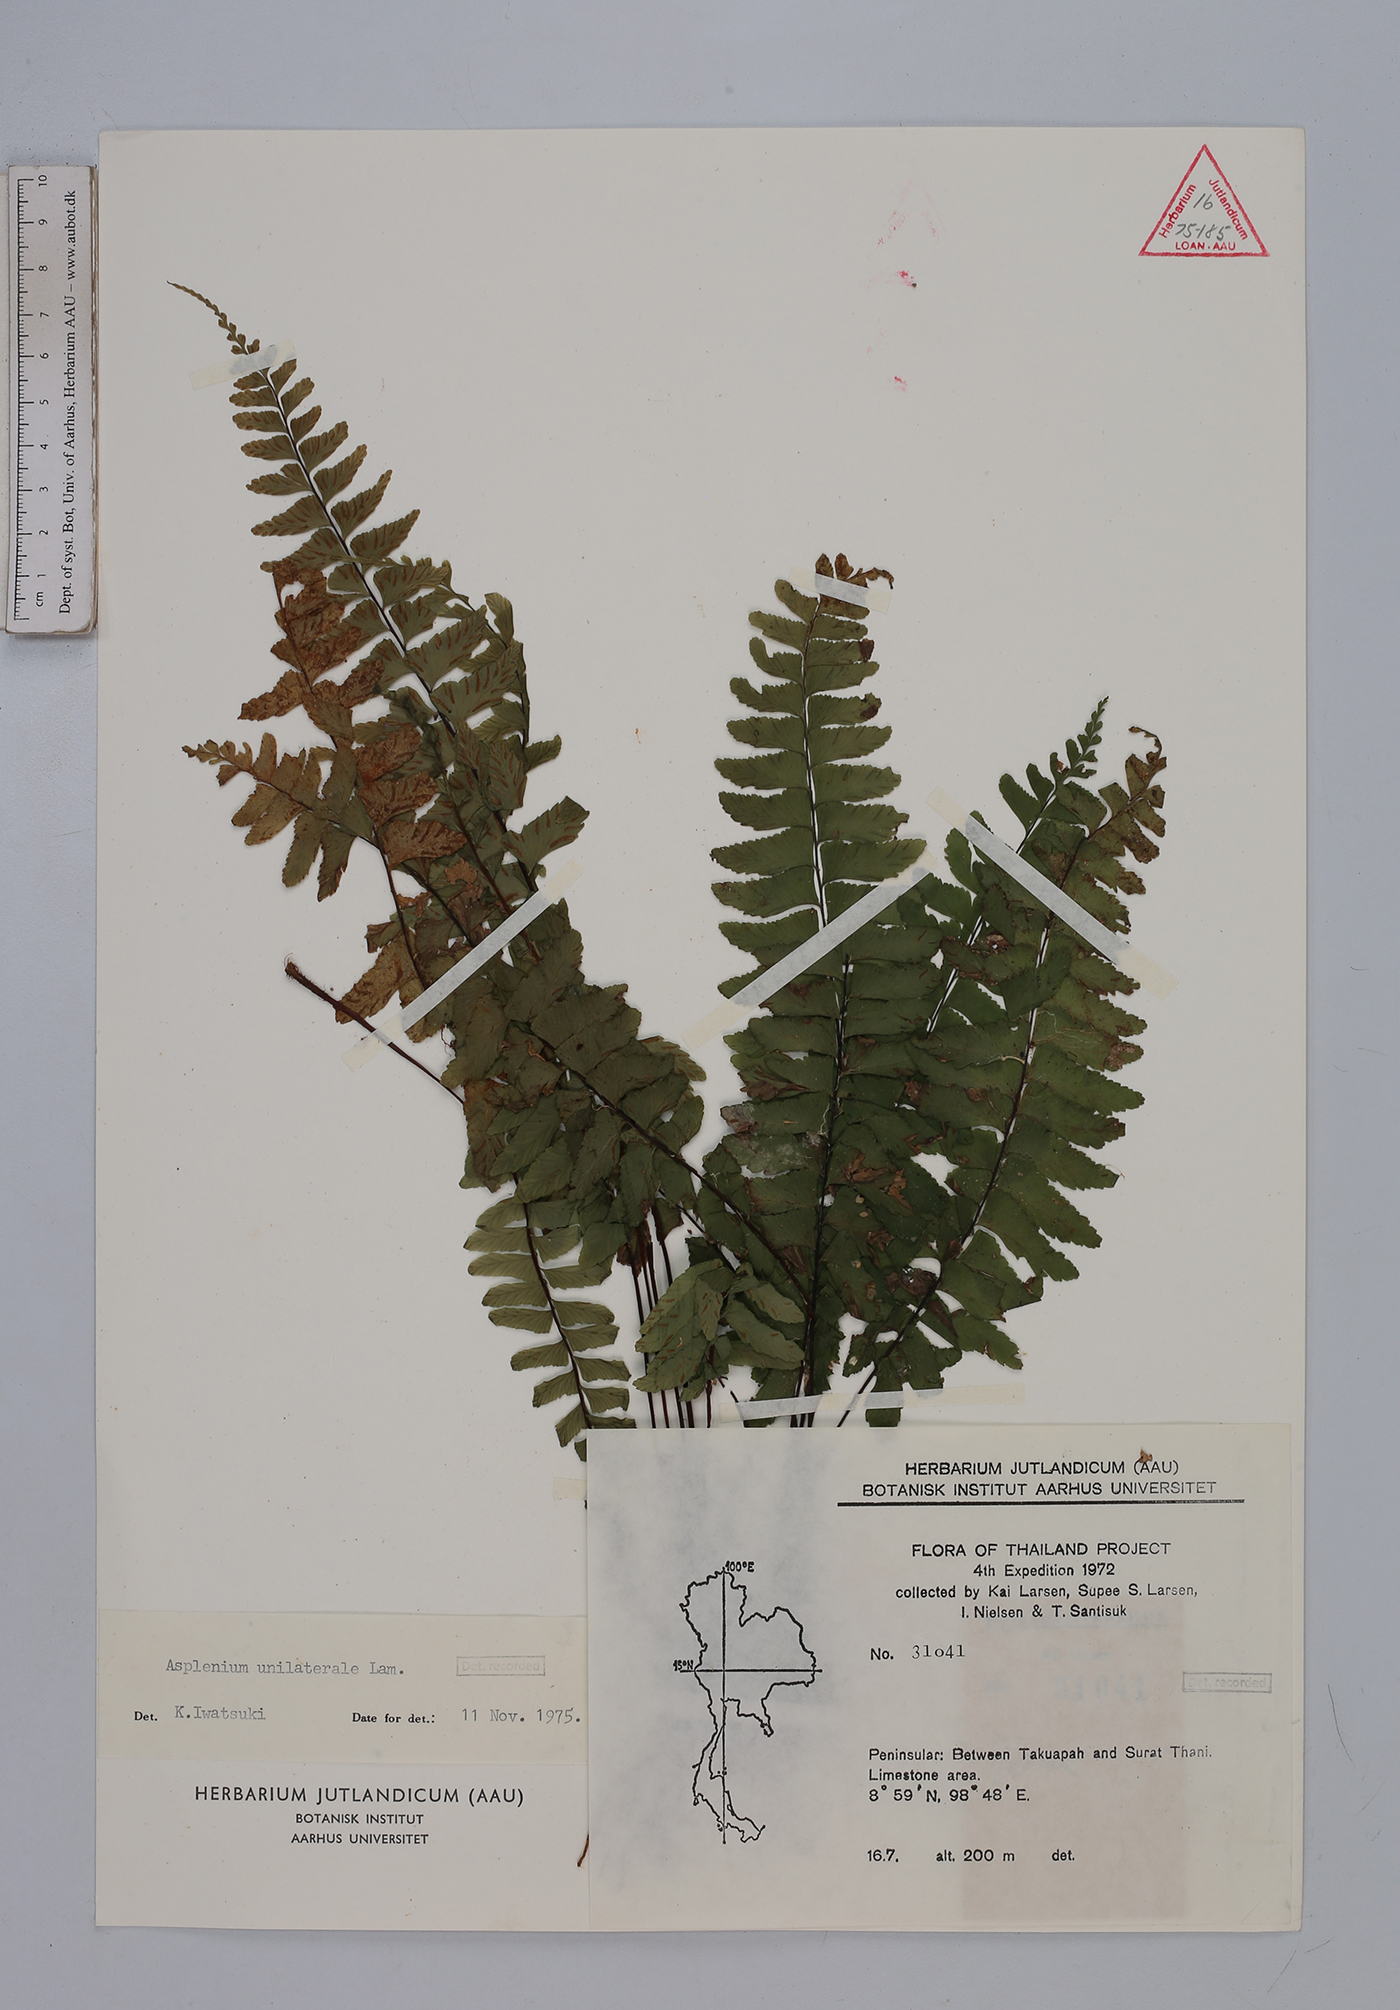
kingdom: Plantae
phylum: Tracheophyta
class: Polypodiopsida
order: Polypodiales
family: Aspleniaceae
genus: Hymenasplenium
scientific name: Hymenasplenium unilaterale
